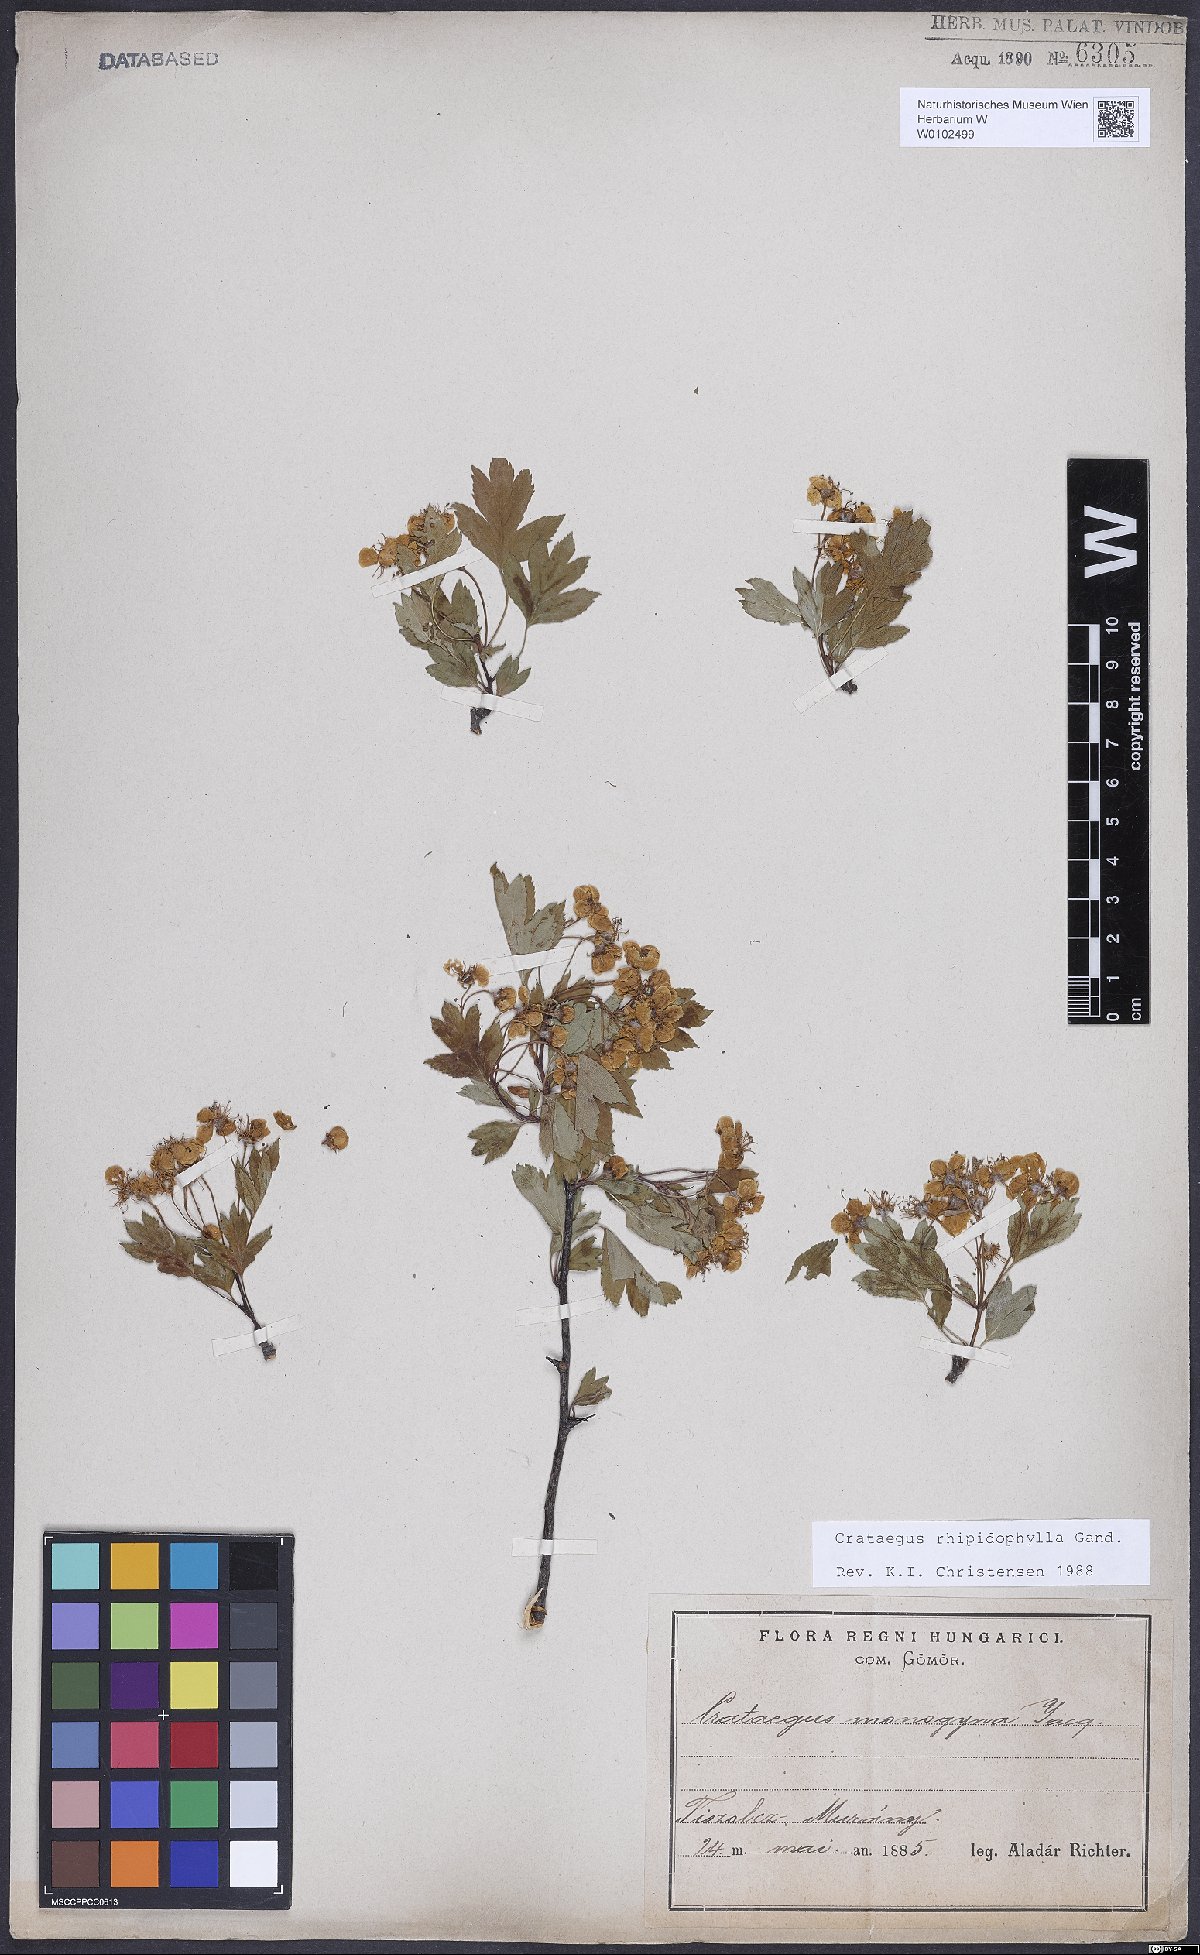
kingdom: Plantae
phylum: Tracheophyta
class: Magnoliopsida
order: Rosales
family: Rosaceae
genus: Crataegus
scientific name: Crataegus rhipidophylla
